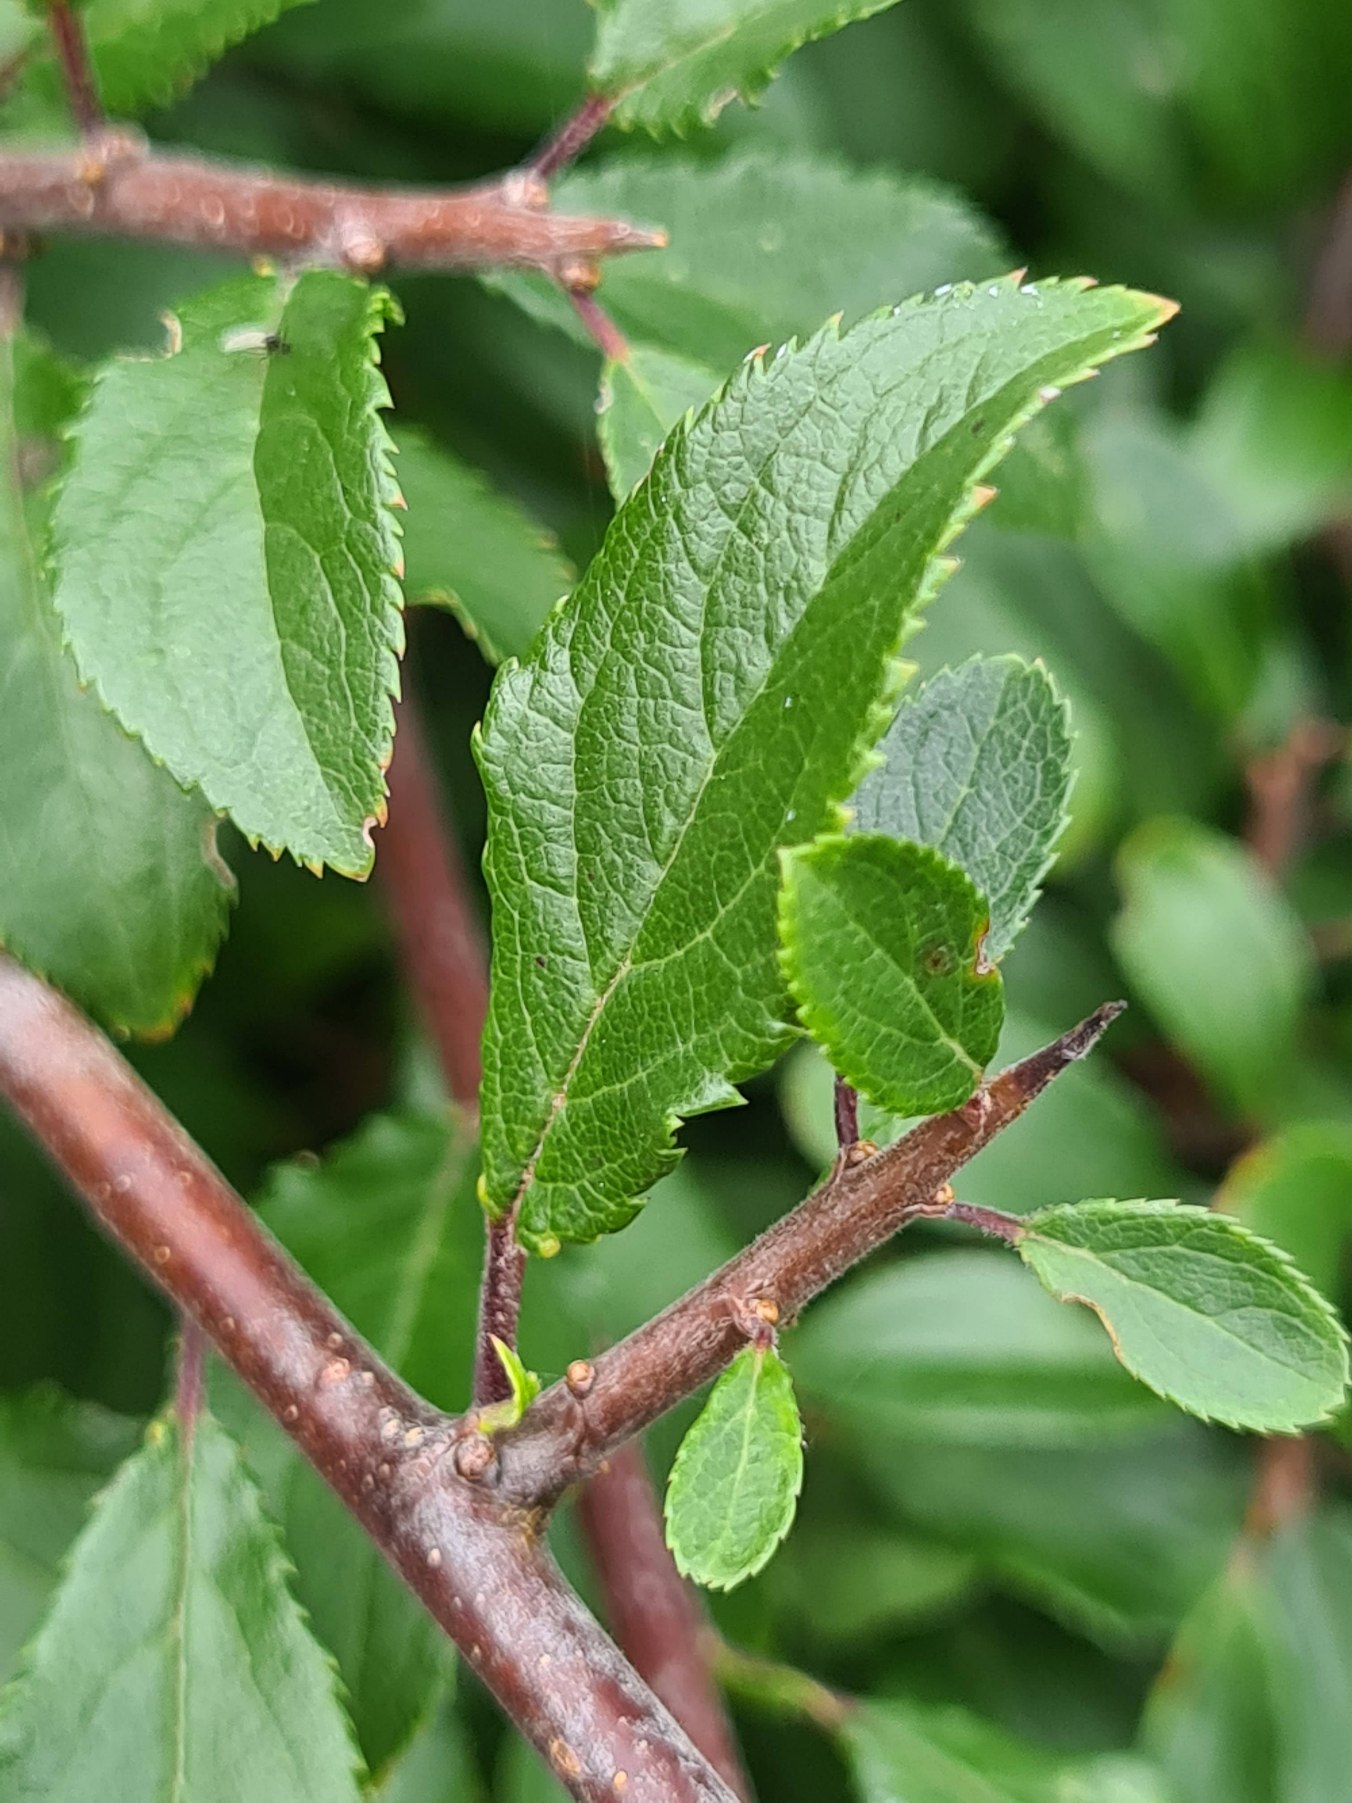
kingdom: Plantae
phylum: Tracheophyta
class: Magnoliopsida
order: Rosales
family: Rosaceae
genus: Prunus
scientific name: Prunus spinosa
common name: Slåen
